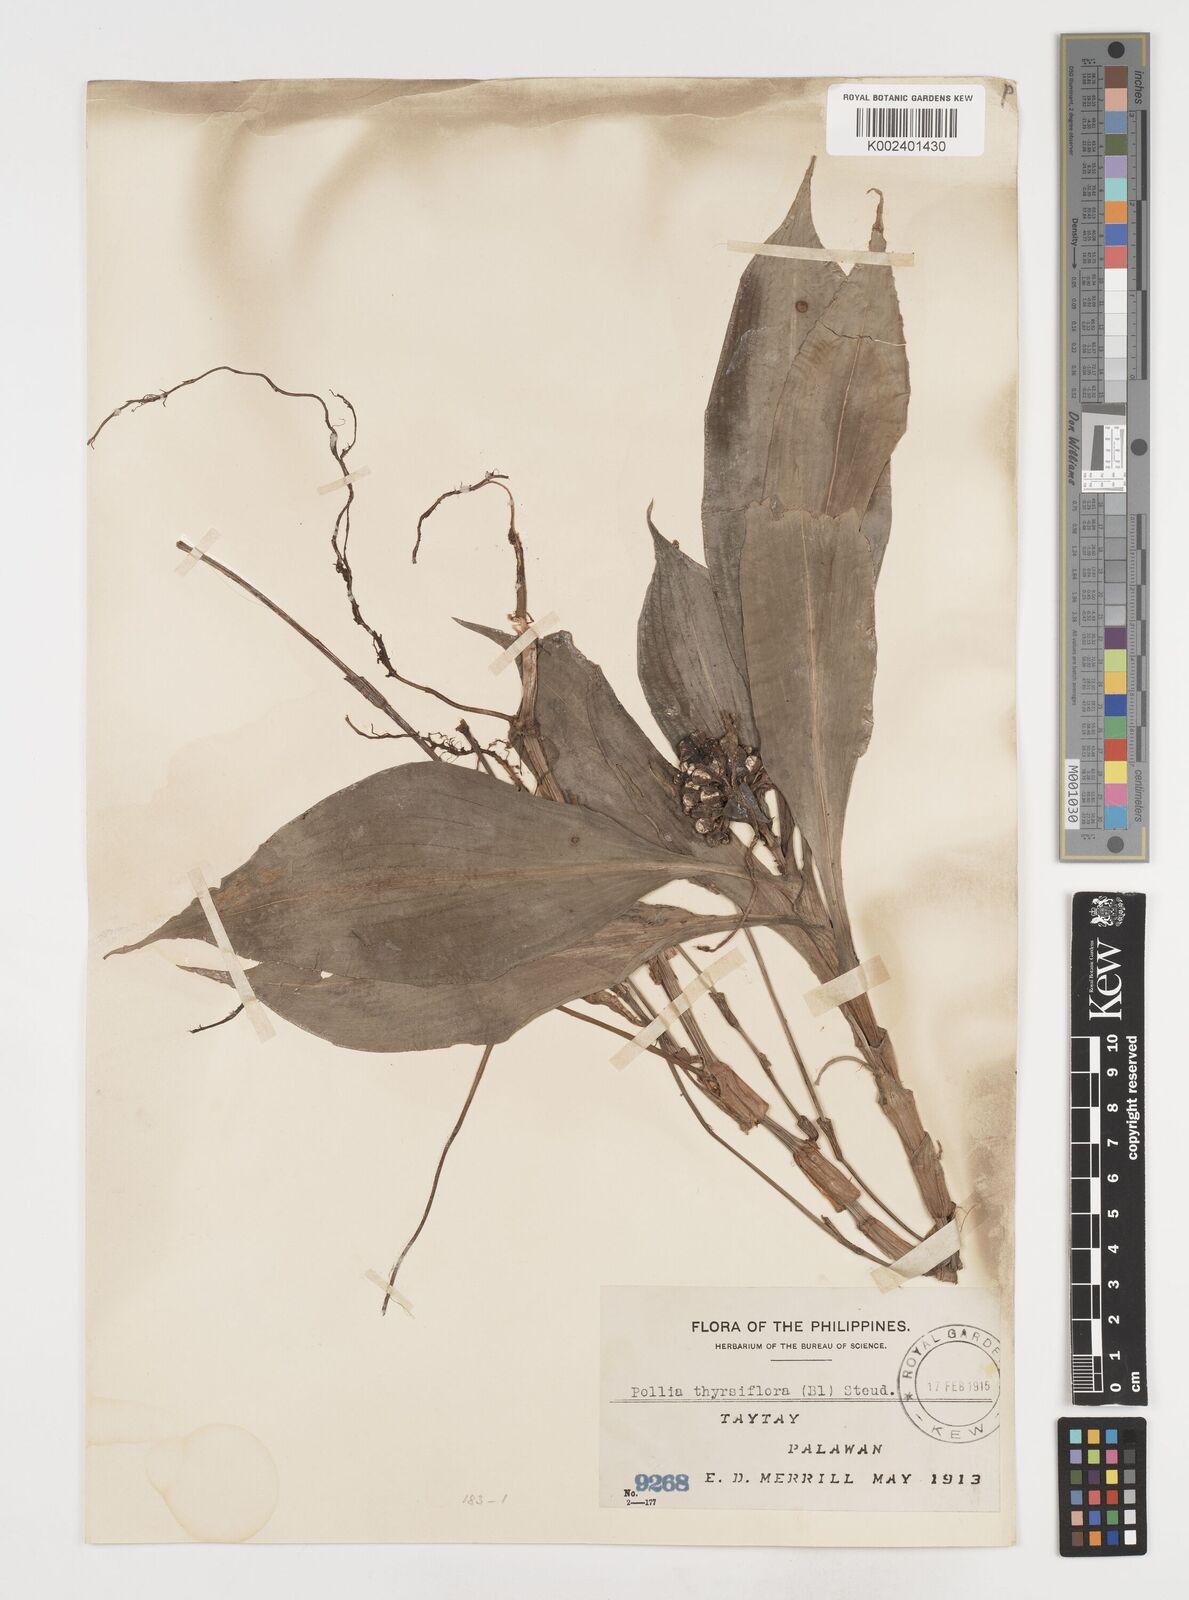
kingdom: Plantae
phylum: Tracheophyta
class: Liliopsida
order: Commelinales
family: Commelinaceae
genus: Pollia
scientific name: Pollia thyrsiflora
